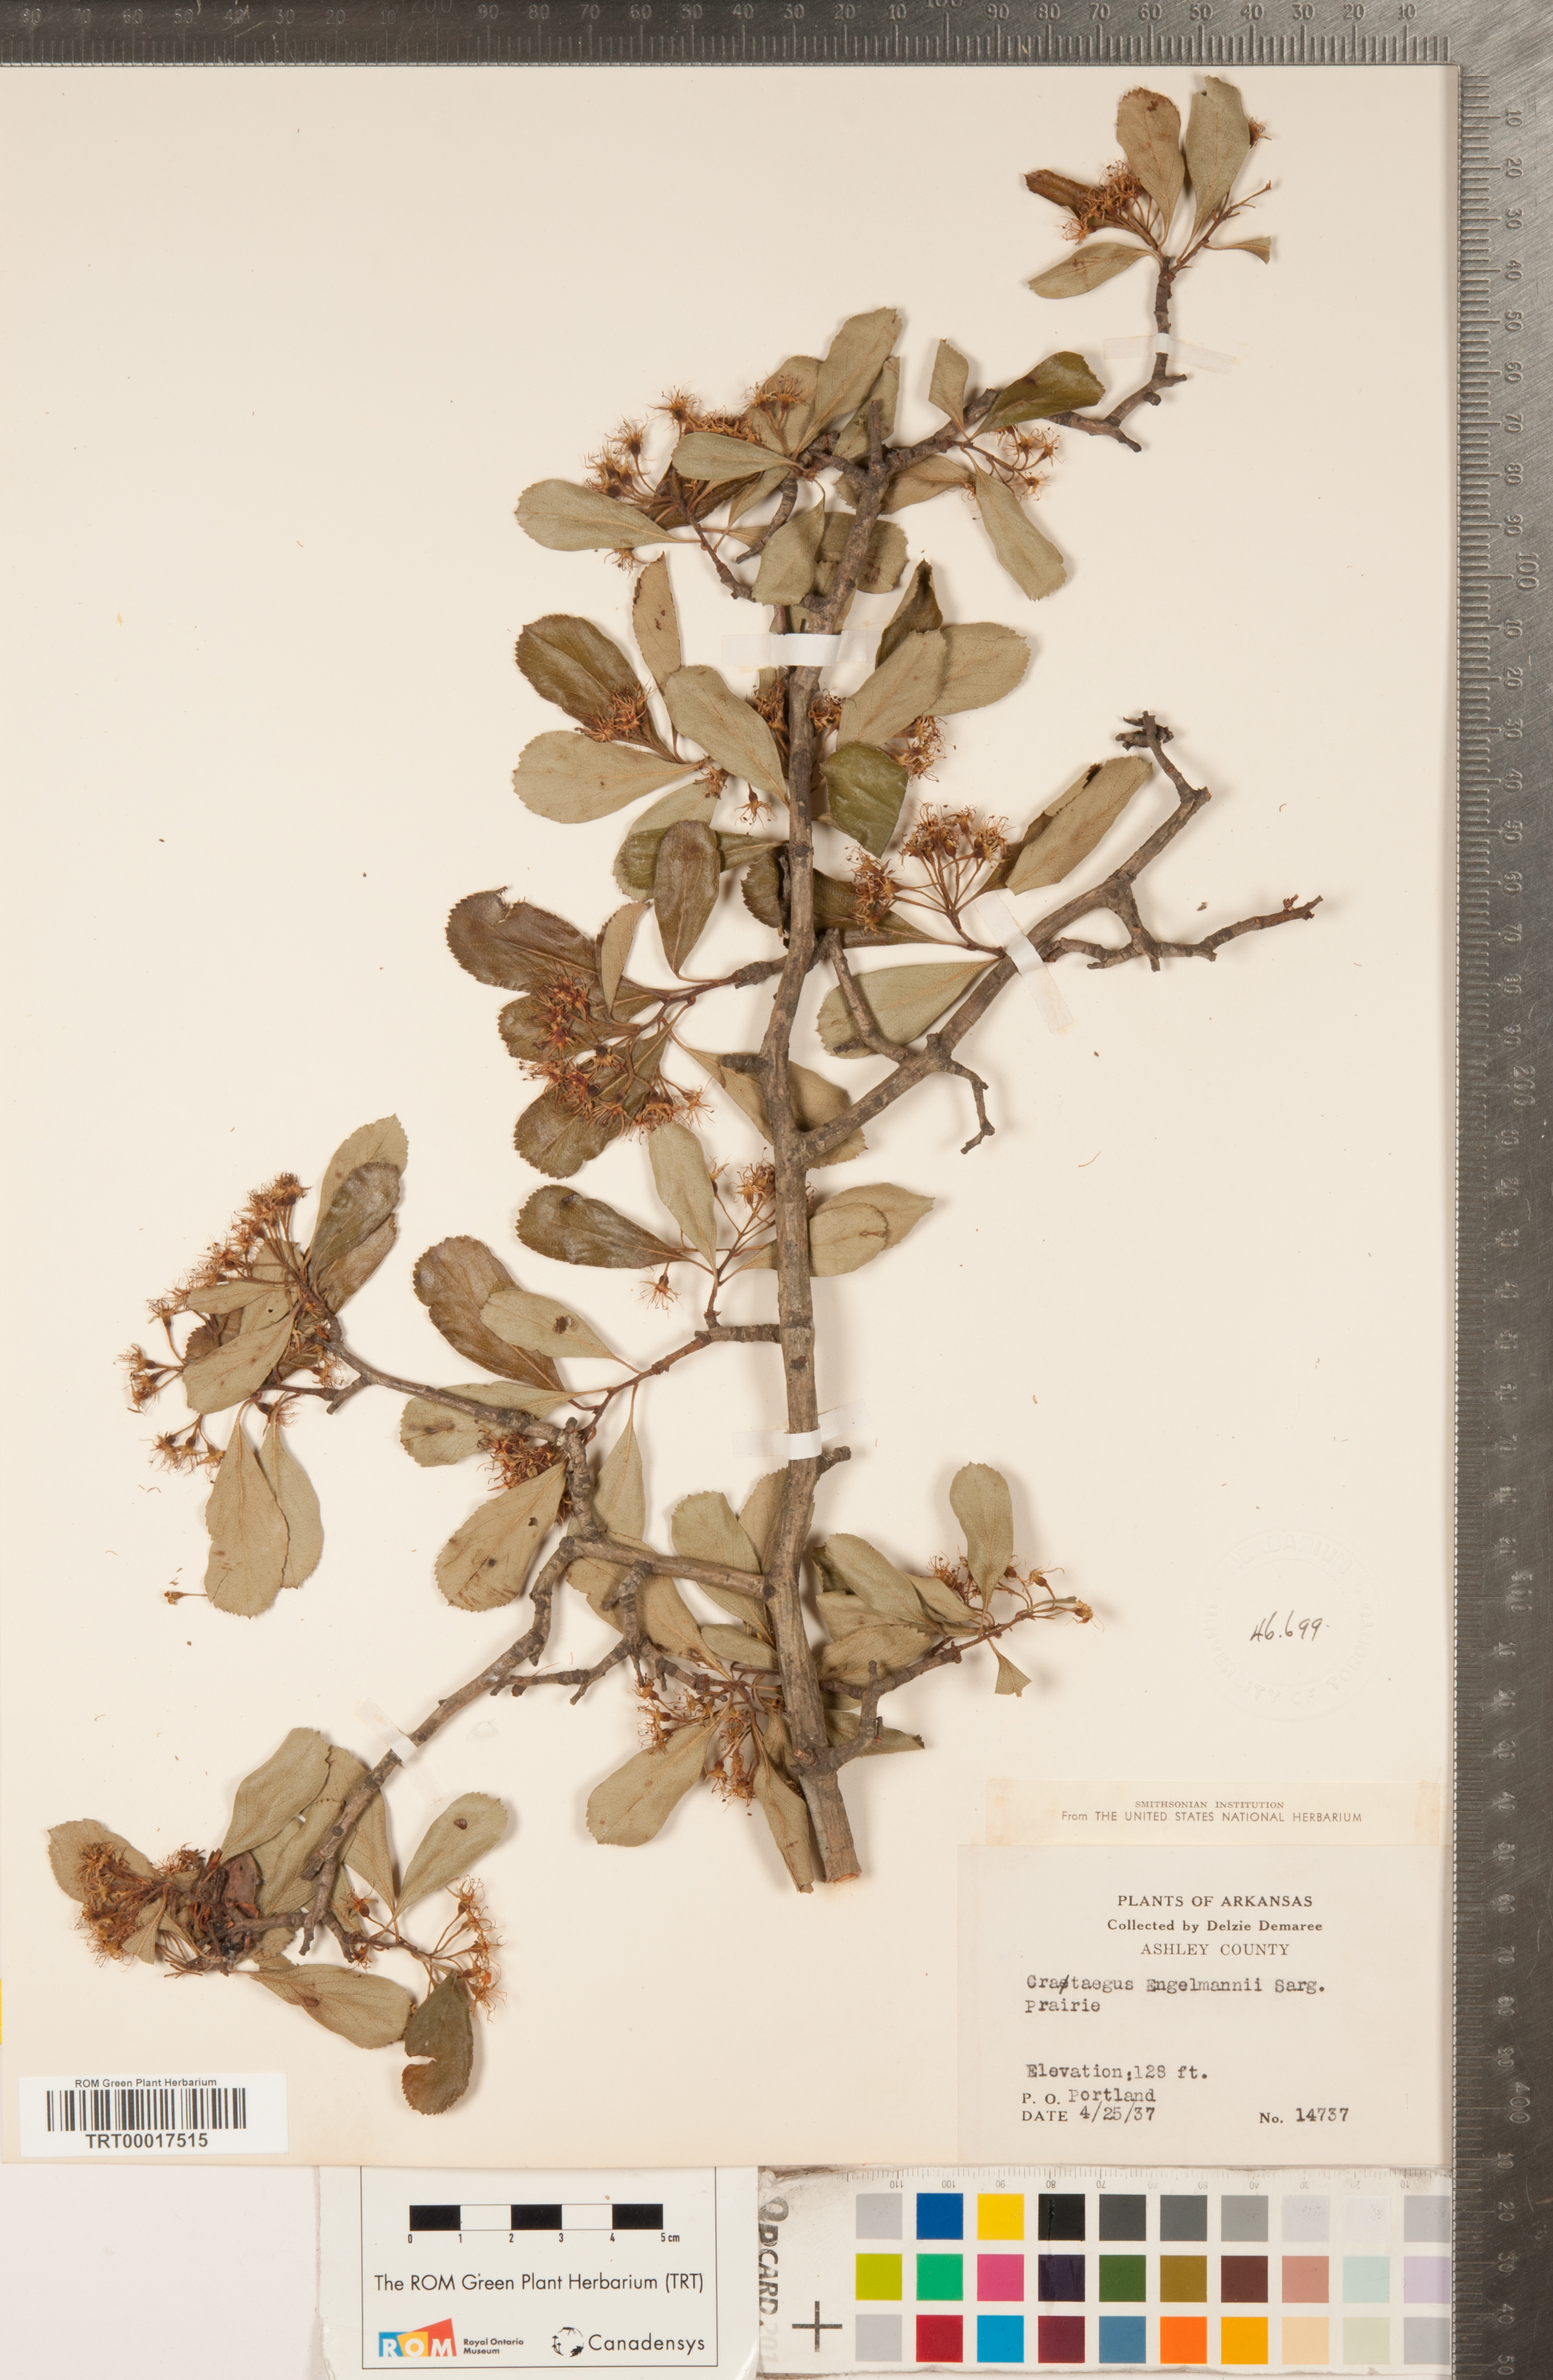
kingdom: Plantae
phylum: Tracheophyta
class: Magnoliopsida
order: Rosales
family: Rosaceae
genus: Crataegus
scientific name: Crataegus berberifolia
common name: Barberry hawthorn
